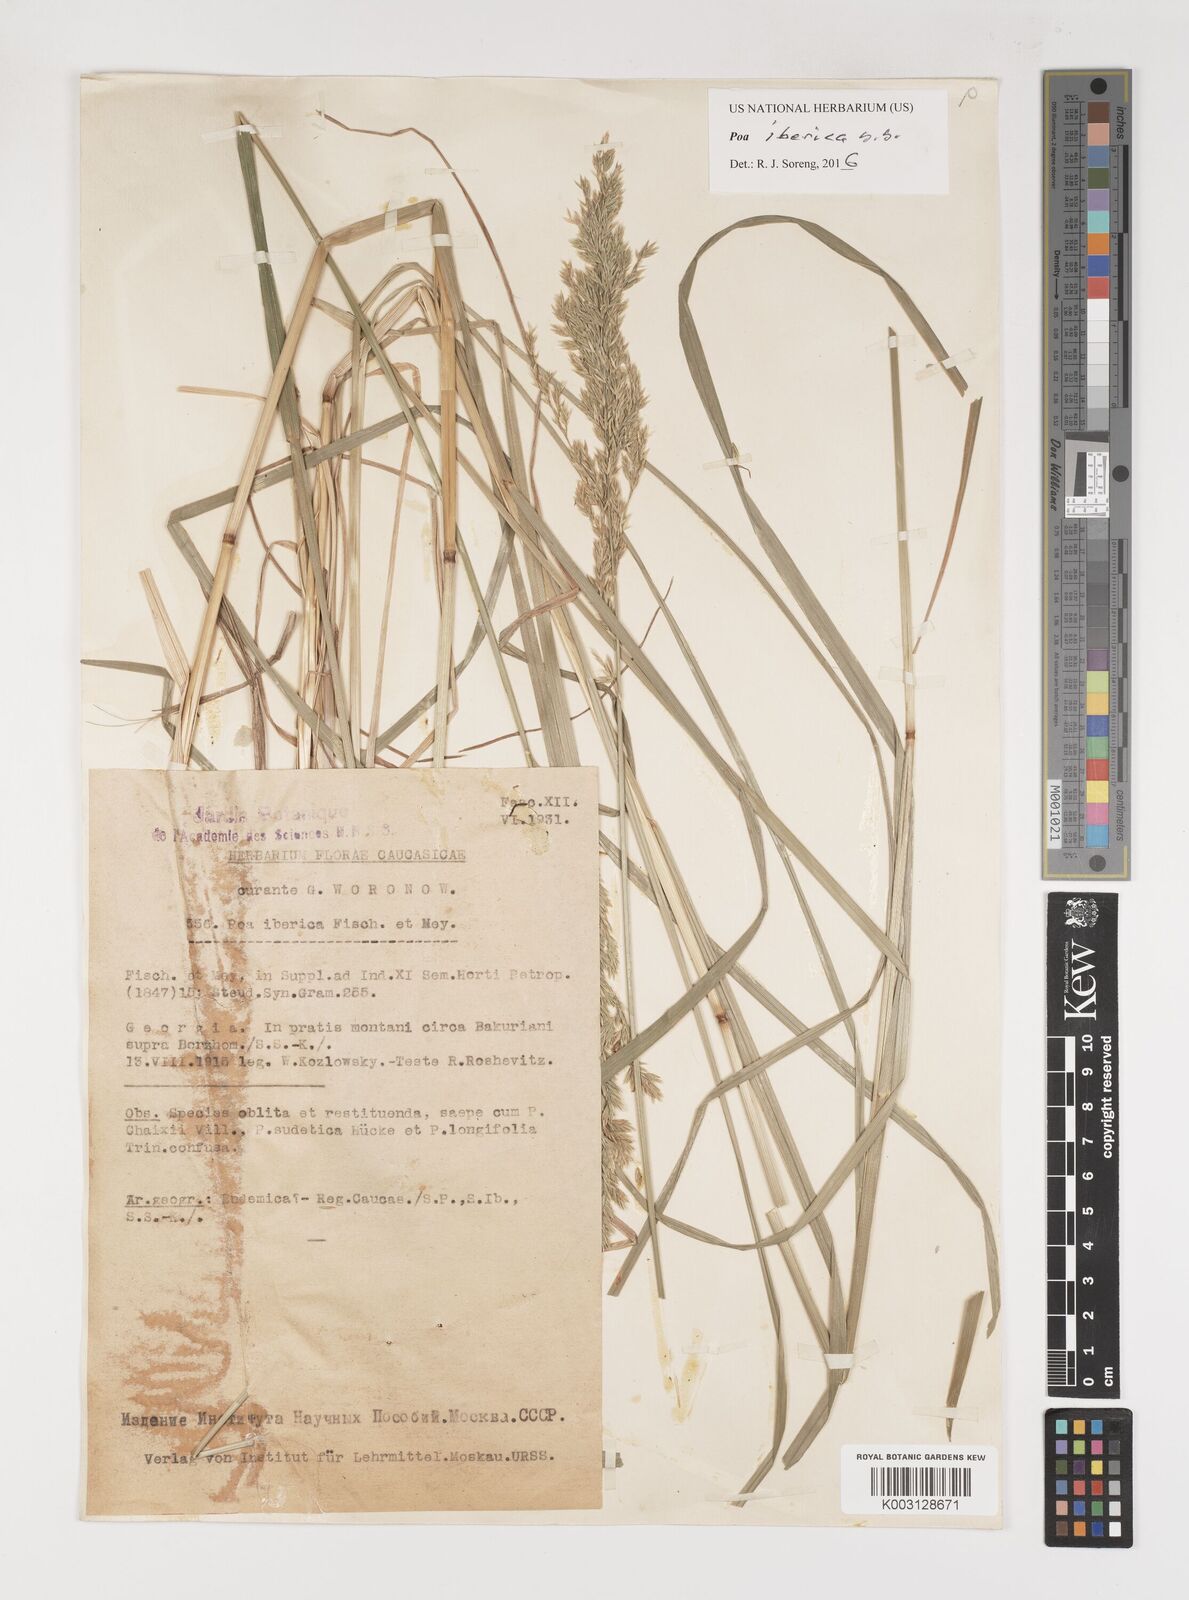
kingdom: Plantae
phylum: Tracheophyta
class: Liliopsida
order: Poales
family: Poaceae
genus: Poa
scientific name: Poa iberica
